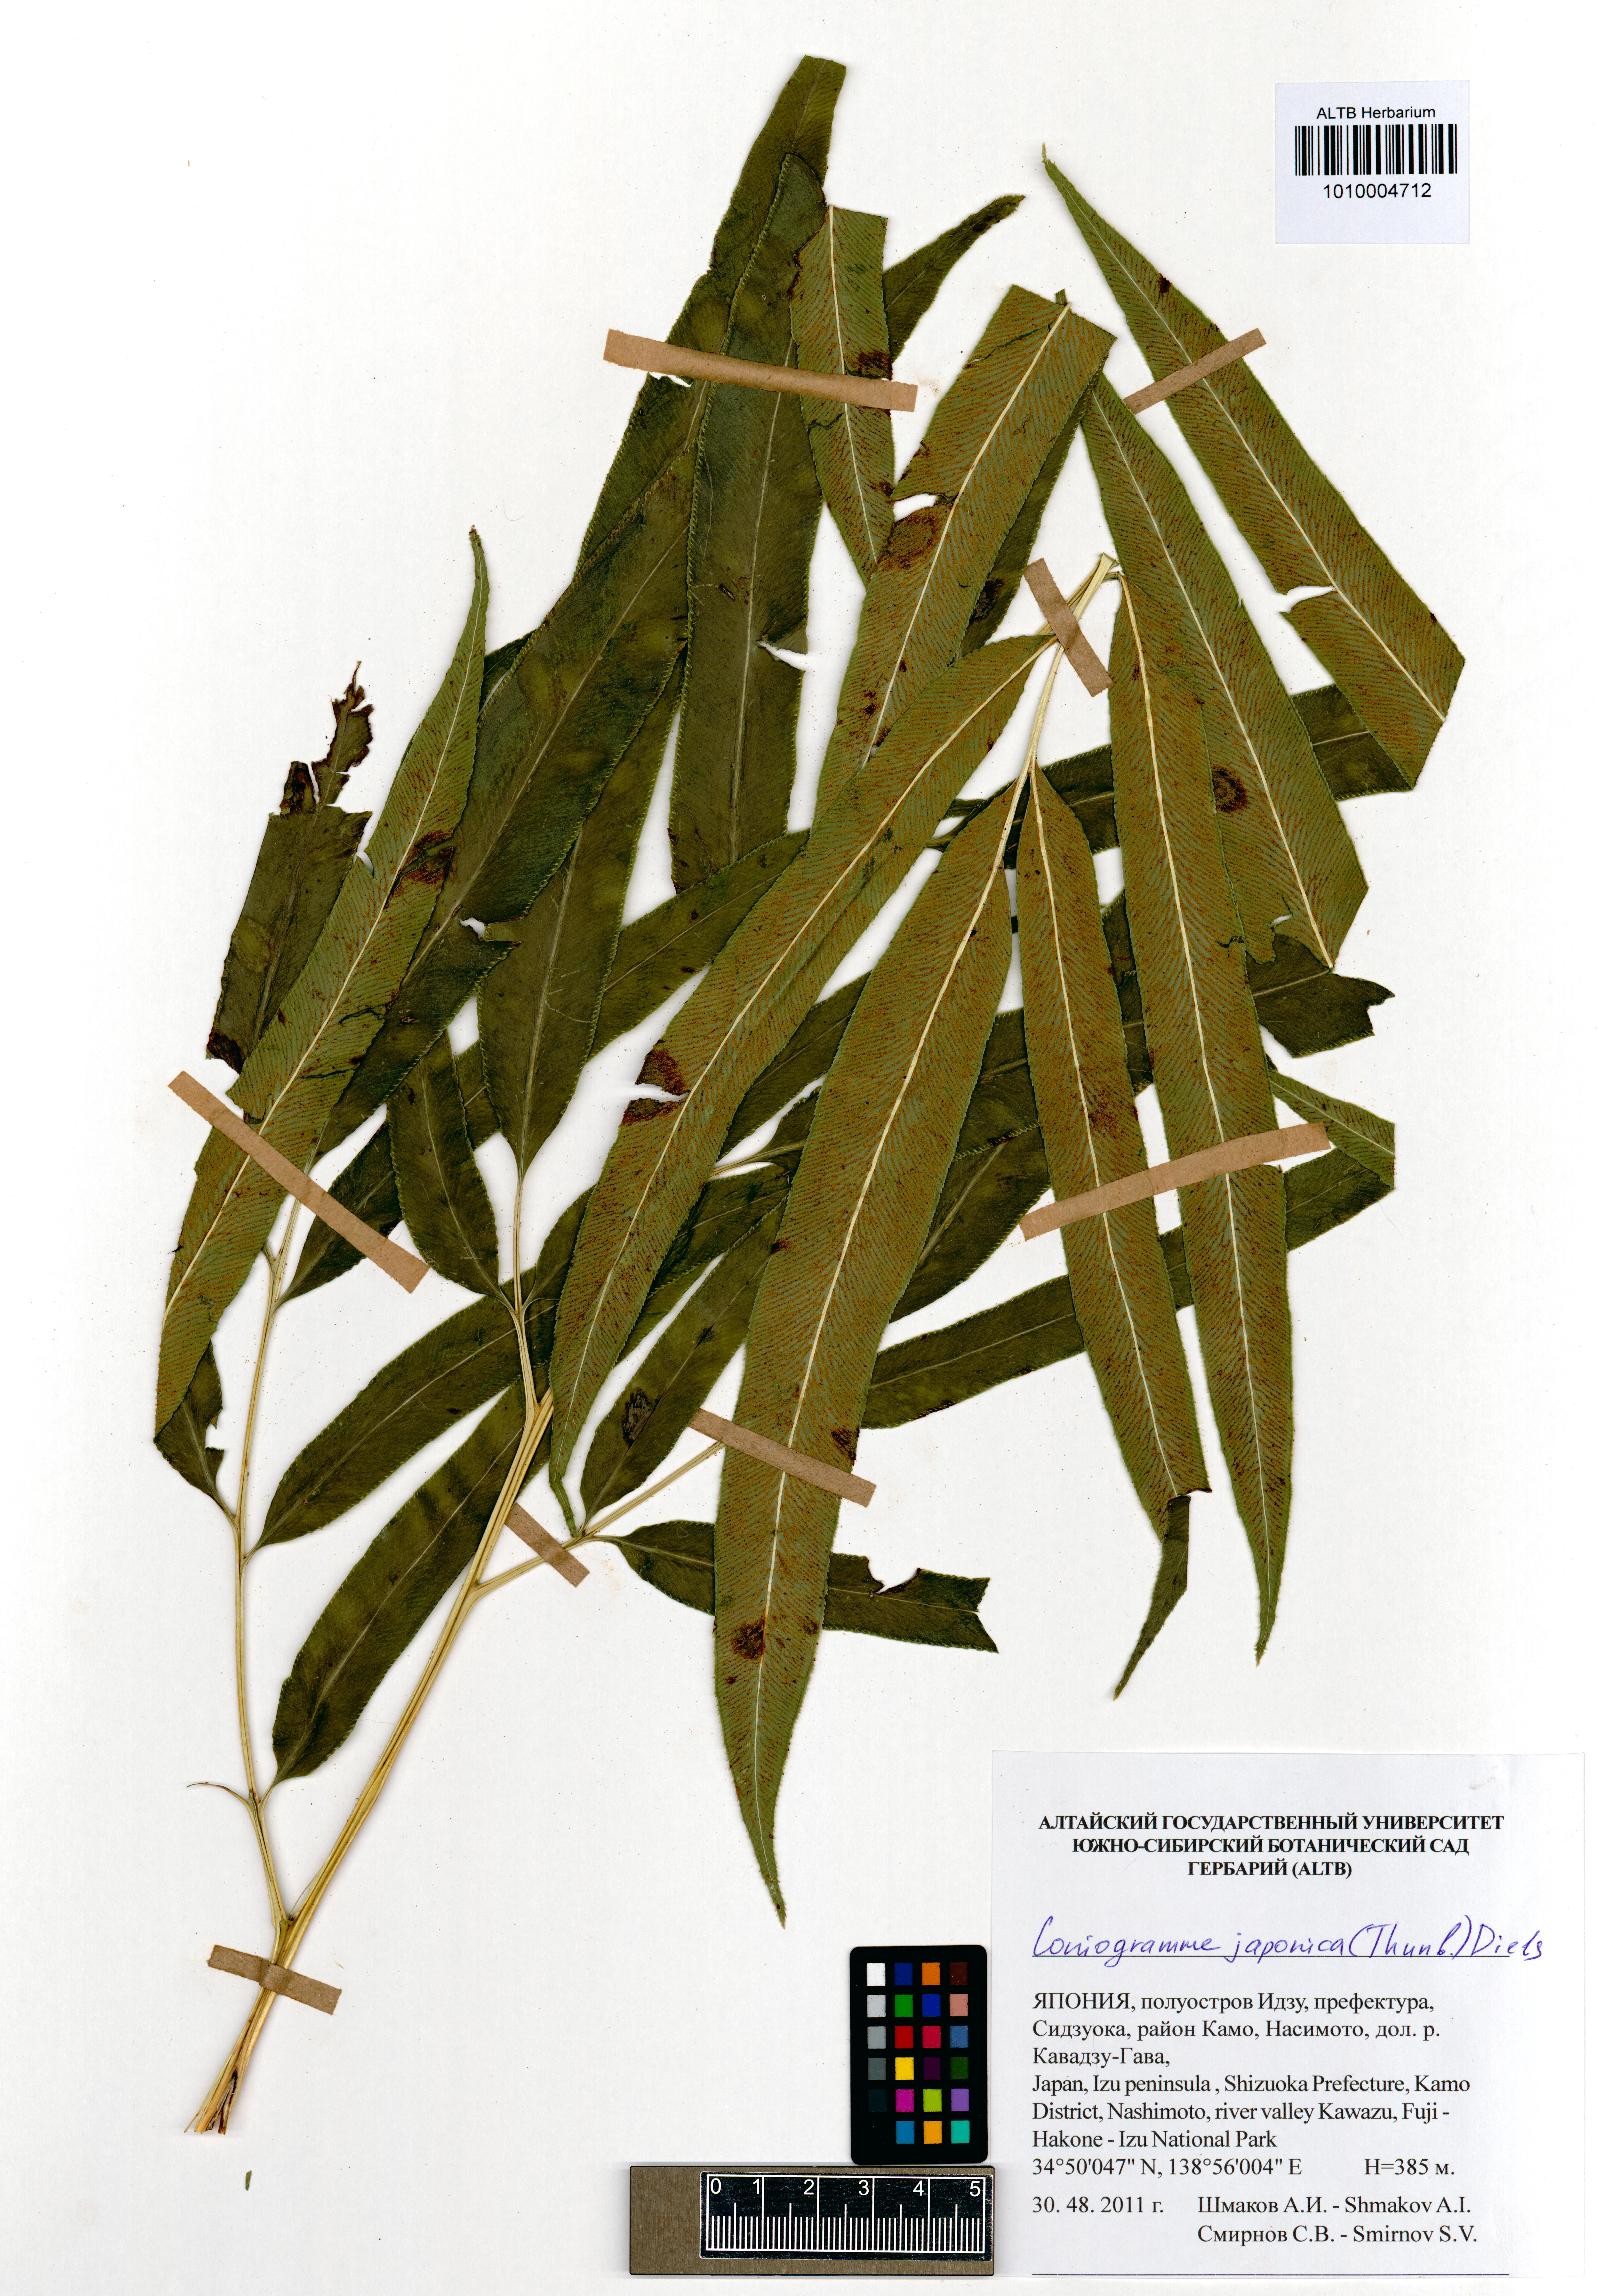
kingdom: Plantae
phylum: Tracheophyta
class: Polypodiopsida
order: Polypodiales
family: Pteridaceae
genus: Coniogramme
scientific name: Coniogramme japonica
